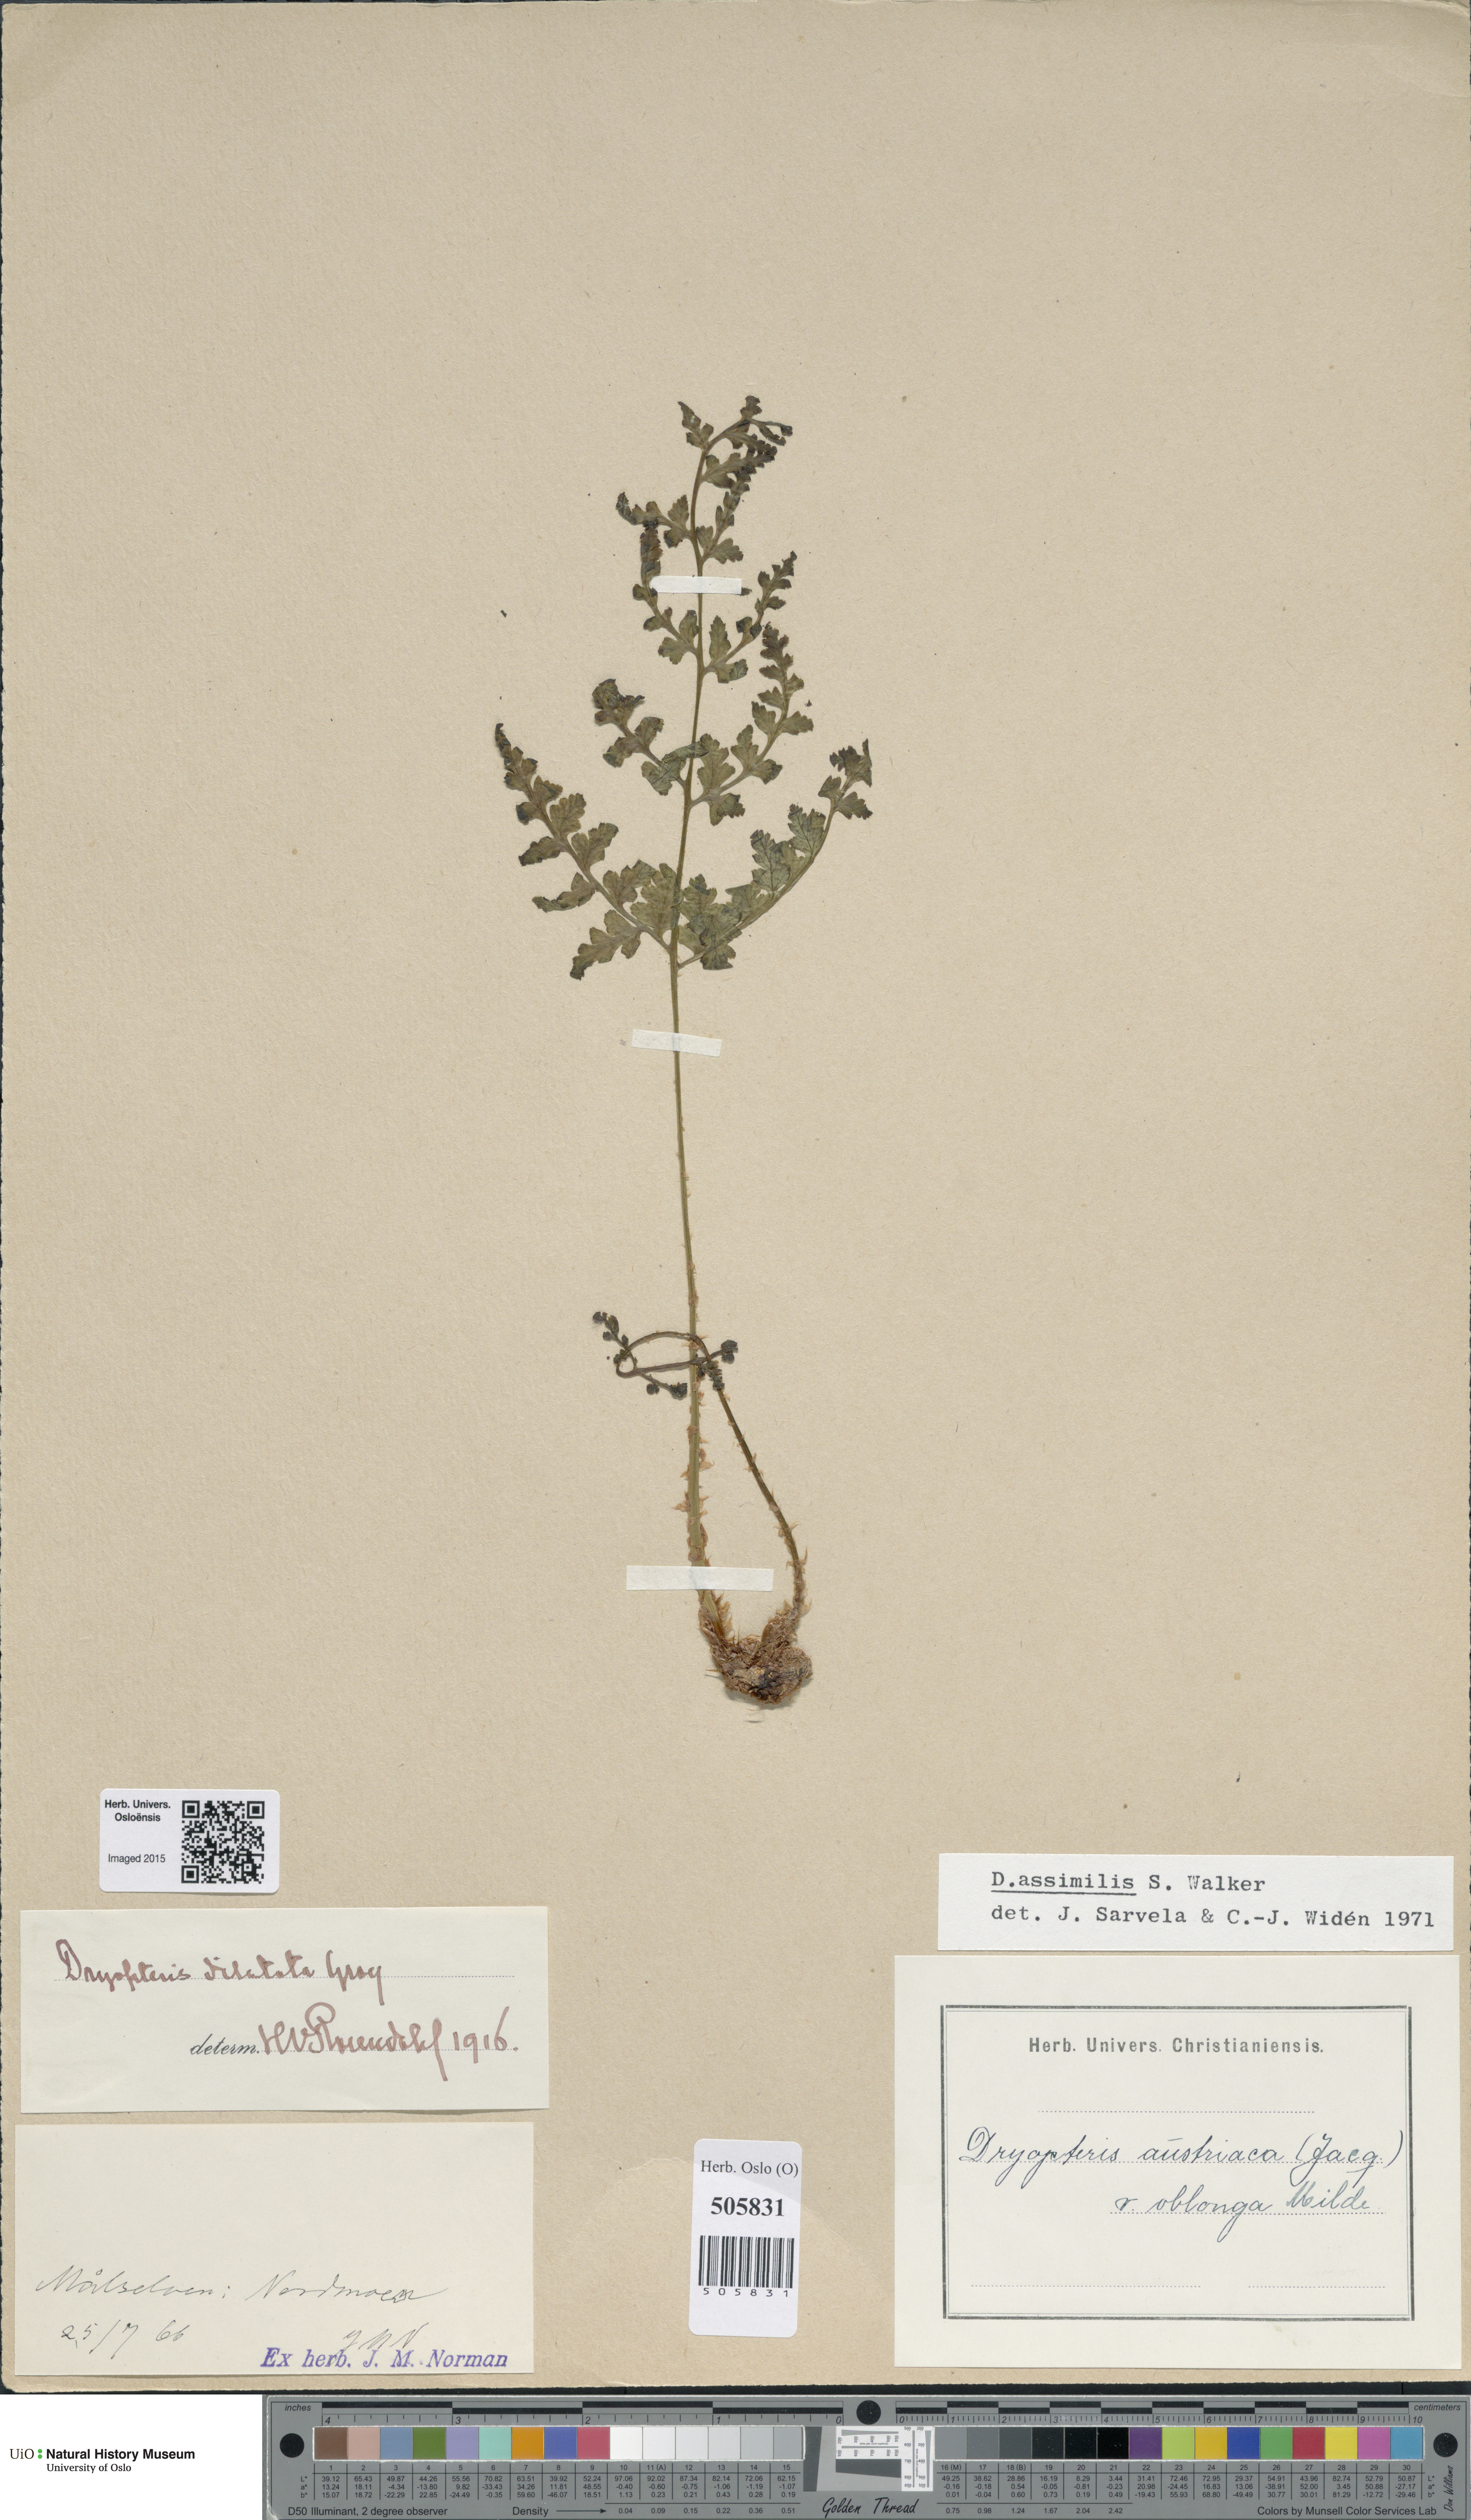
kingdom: Plantae
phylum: Tracheophyta
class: Polypodiopsida
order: Polypodiales
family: Dryopteridaceae
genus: Dryopteris
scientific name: Dryopteris expansa
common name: Northern buckler fern
